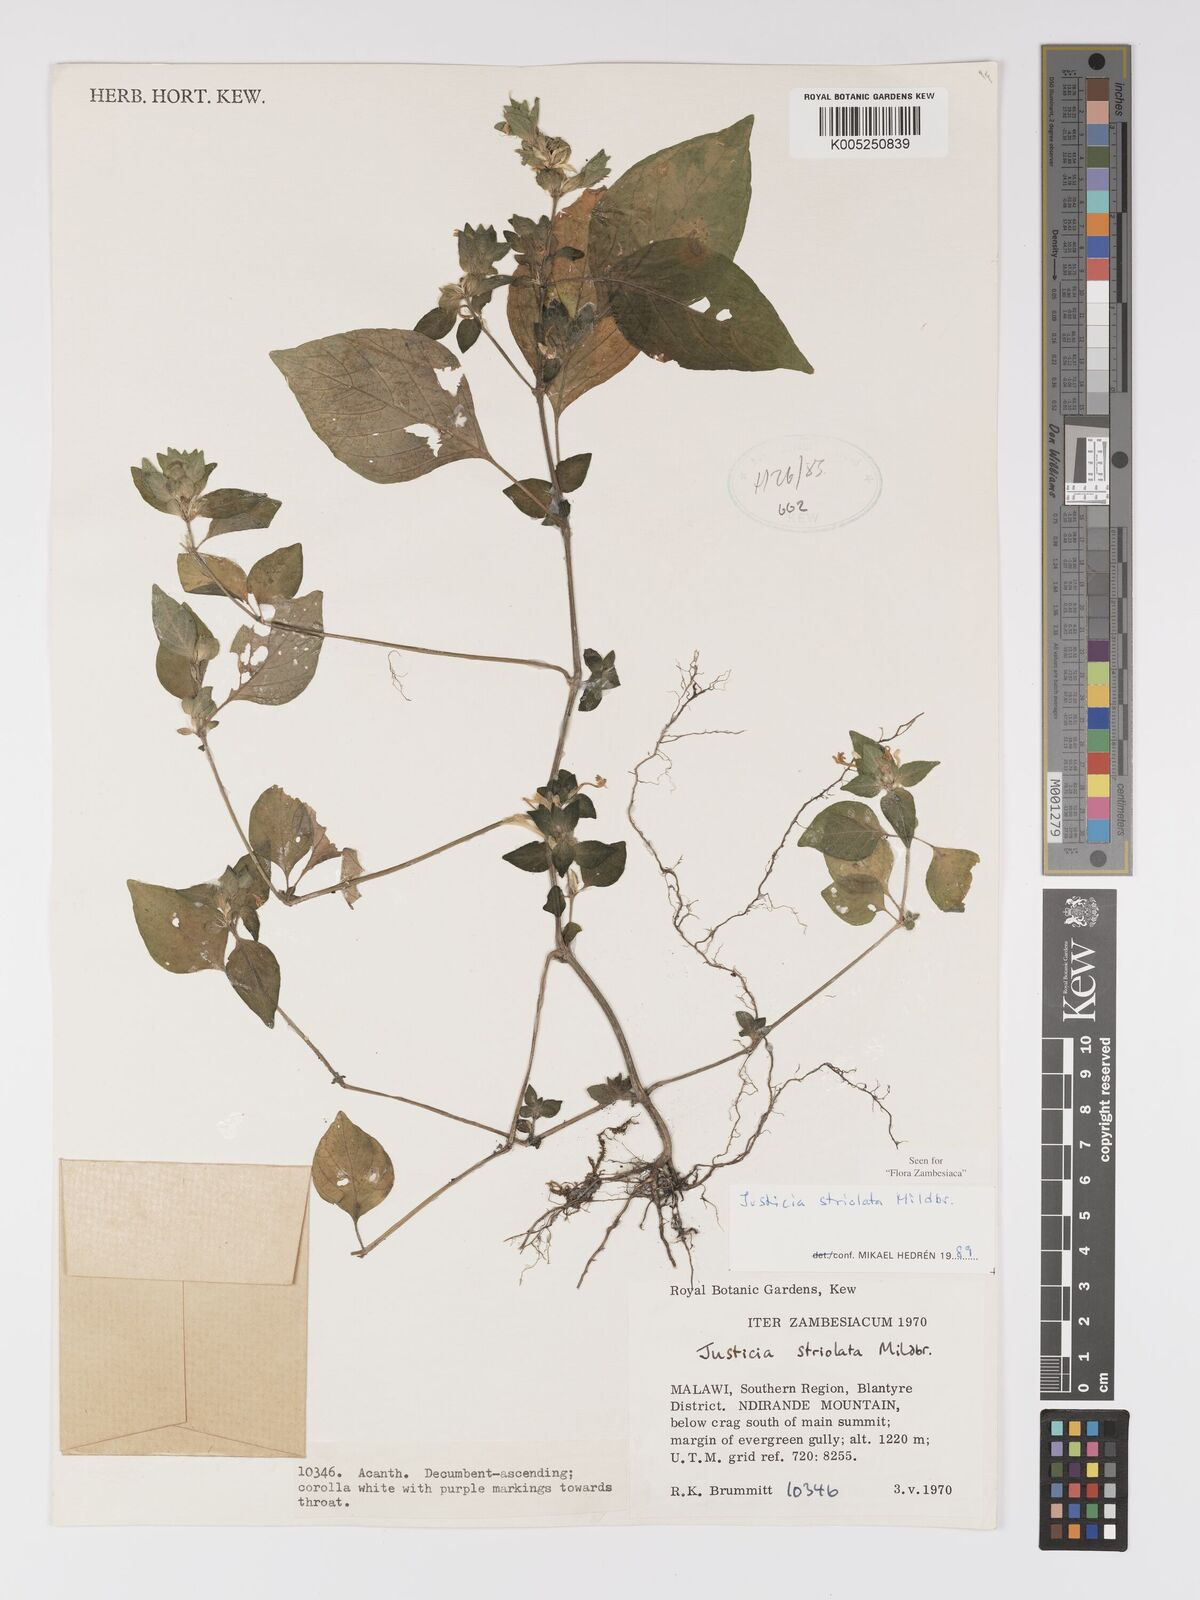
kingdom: Plantae
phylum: Tracheophyta
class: Magnoliopsida
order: Lamiales
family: Acanthaceae
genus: Justicia
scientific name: Justicia striolata
